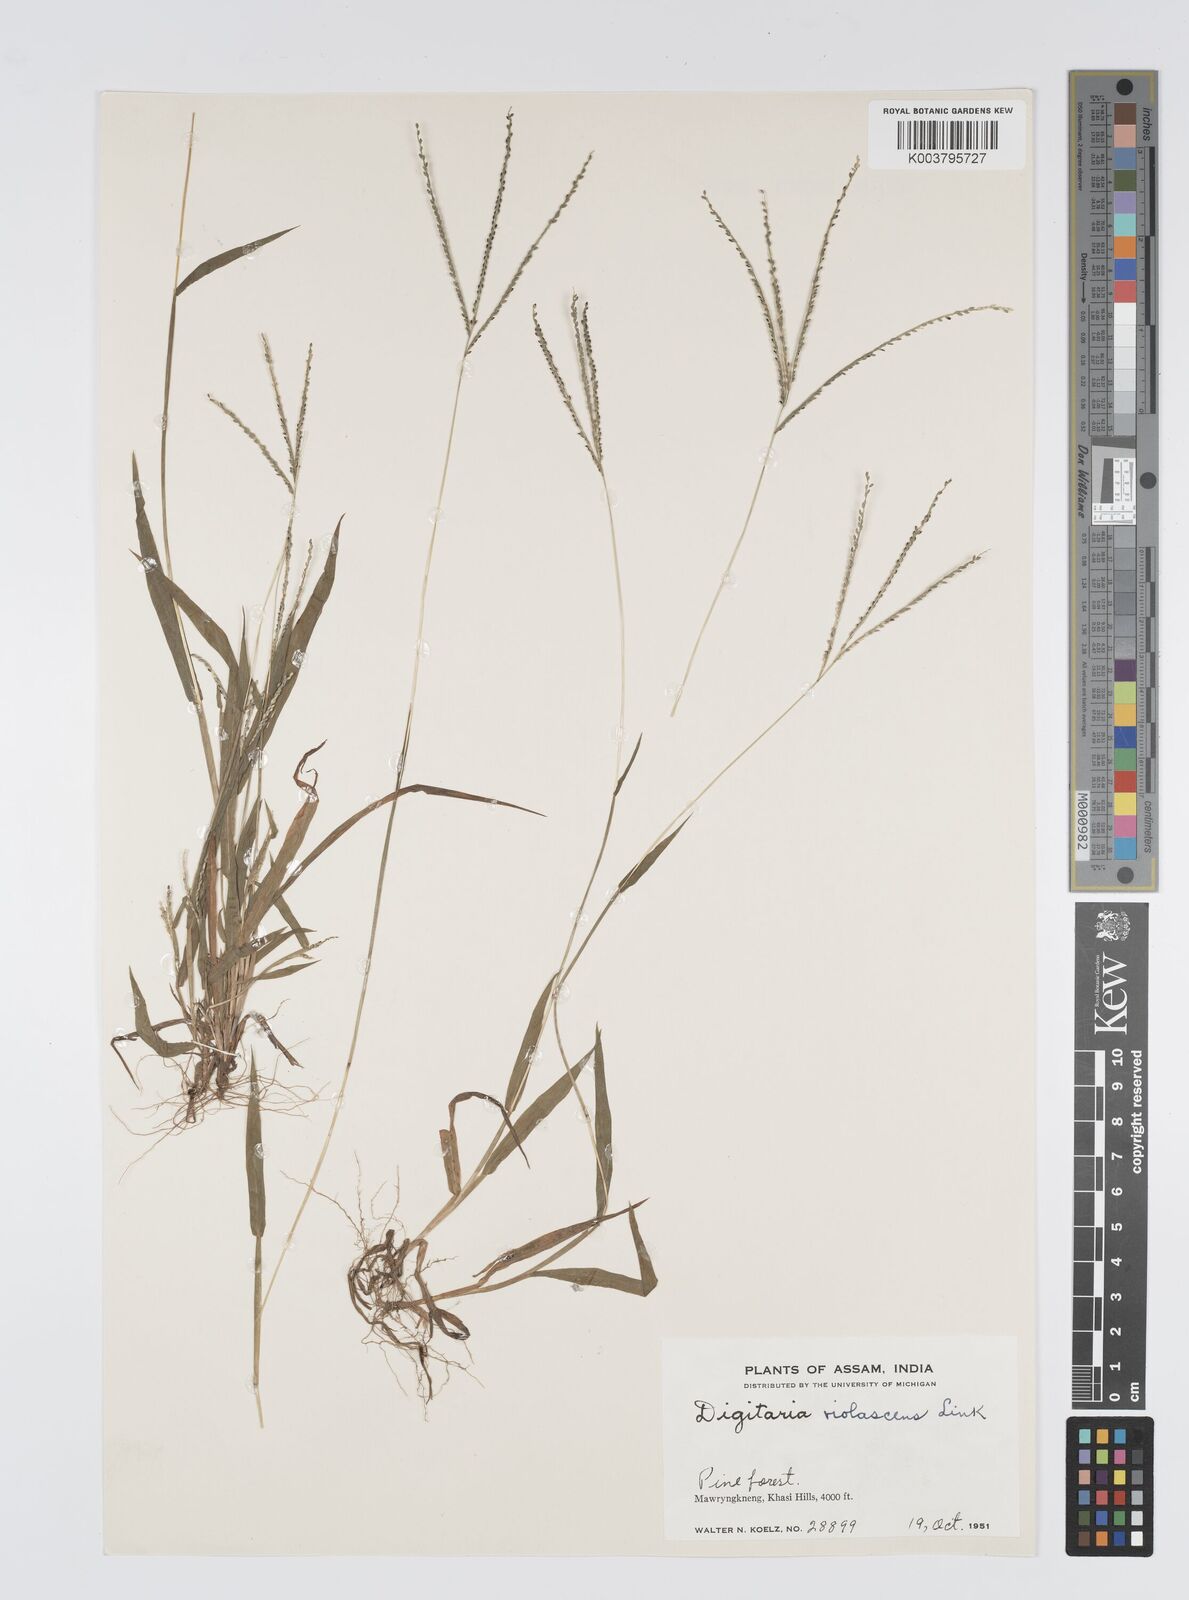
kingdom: Plantae
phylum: Tracheophyta
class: Liliopsida
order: Poales
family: Poaceae
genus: Digitaria
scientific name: Digitaria violascens
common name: Violet crabgrass
